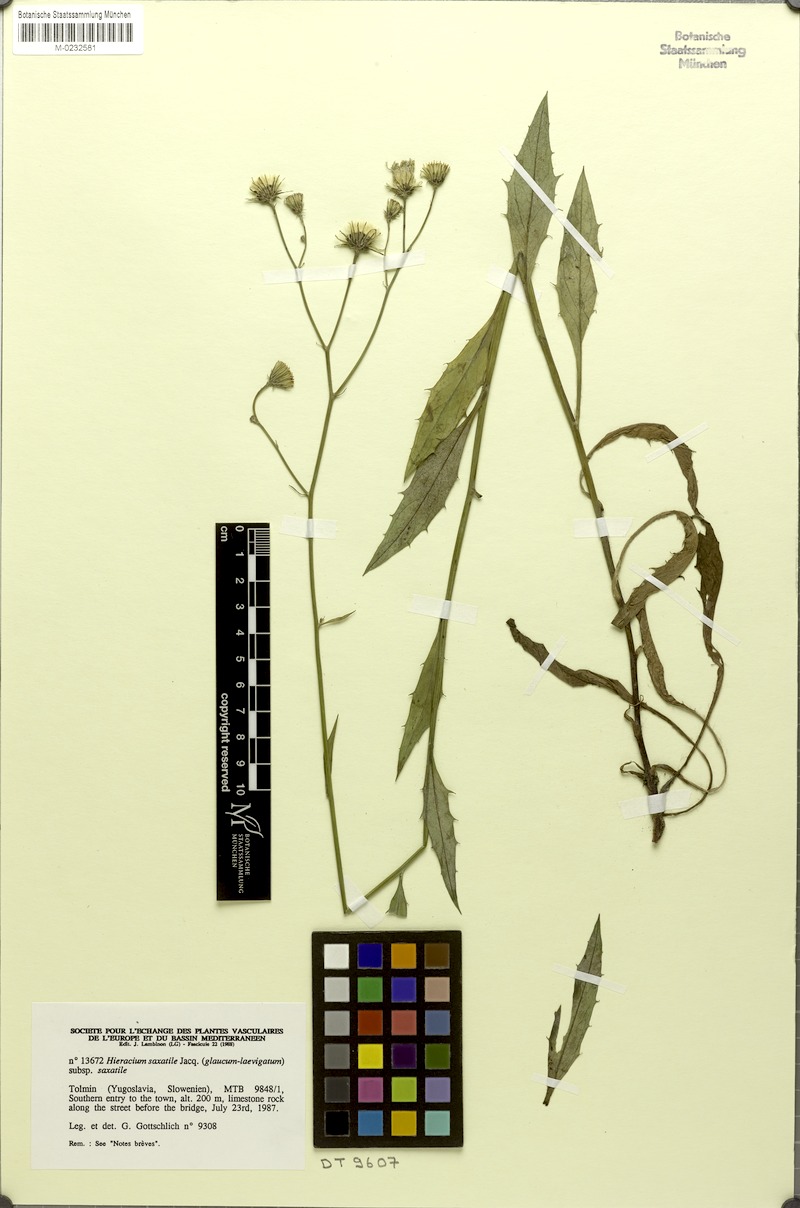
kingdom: Plantae
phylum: Tracheophyta
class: Magnoliopsida
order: Asterales
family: Asteraceae
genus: Hieracium
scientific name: Hieracium saxatile
